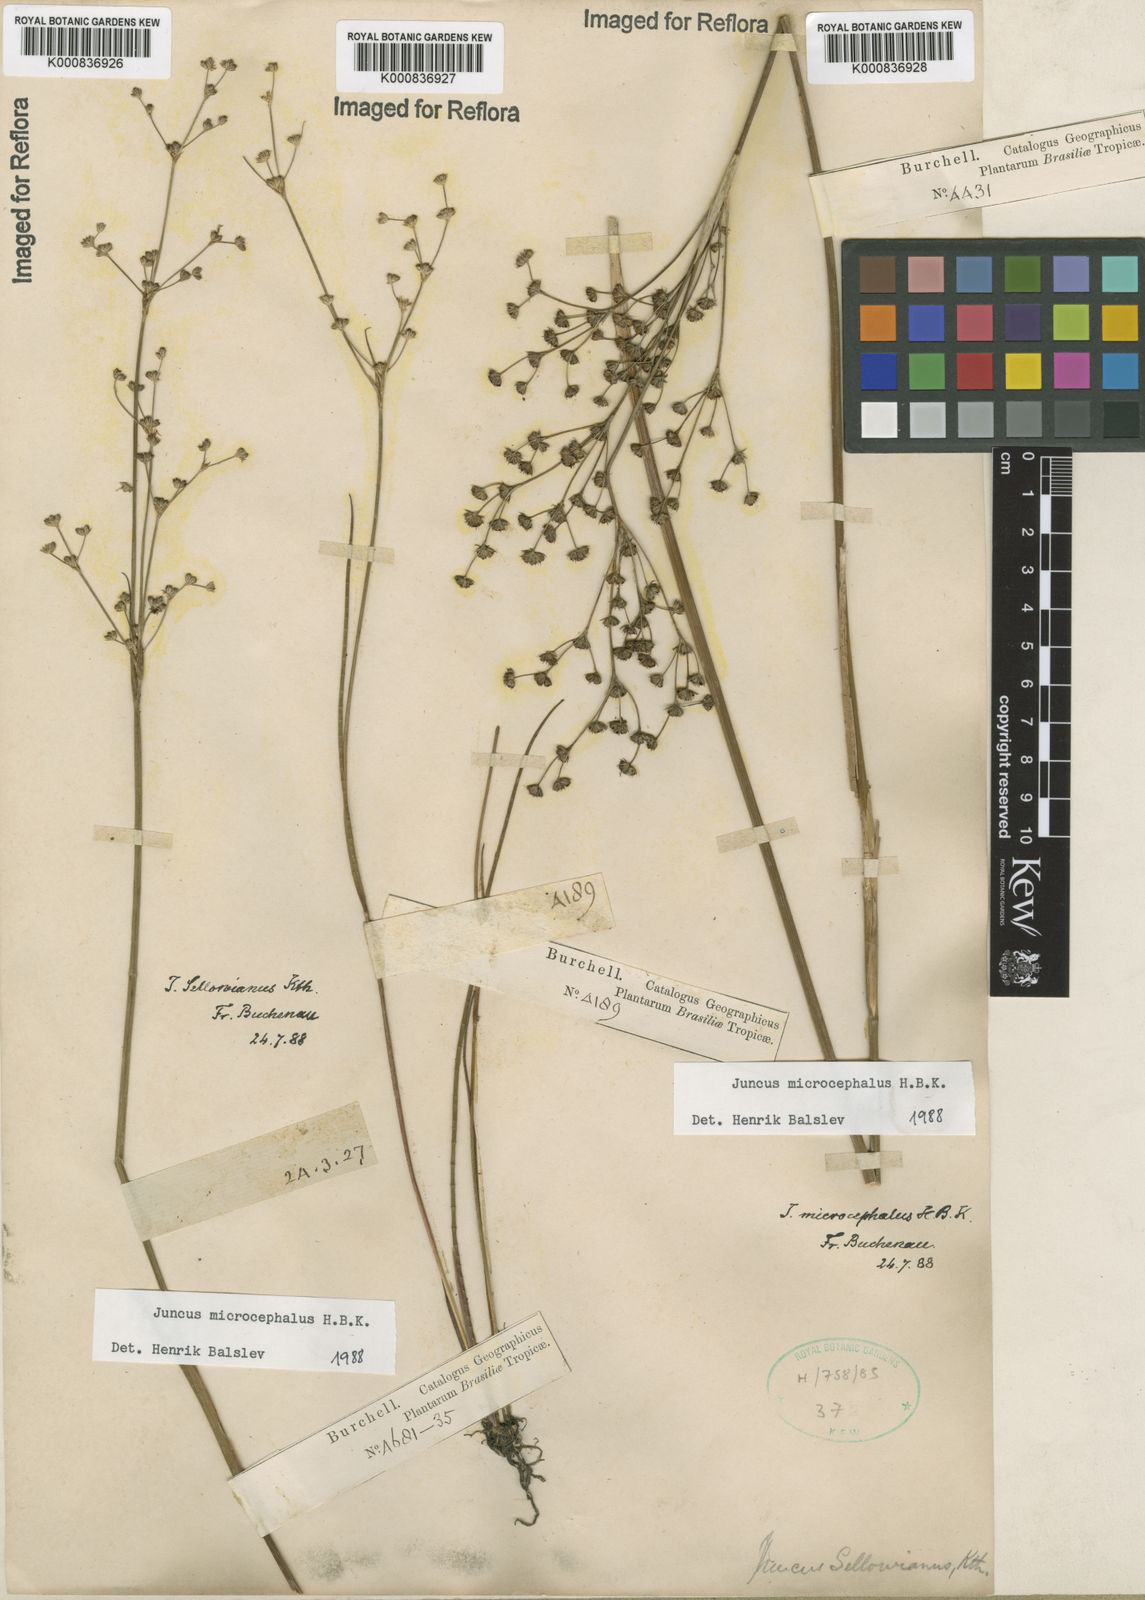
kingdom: Plantae
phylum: Tracheophyta
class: Liliopsida
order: Poales
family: Juncaceae
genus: Juncus
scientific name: Juncus microcephalus
